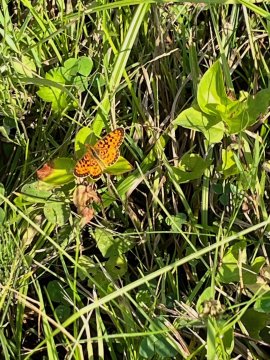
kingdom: Animalia
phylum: Arthropoda
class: Insecta
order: Lepidoptera
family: Nymphalidae
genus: Boloria
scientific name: Boloria selene
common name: Silver-bordered Fritillary
